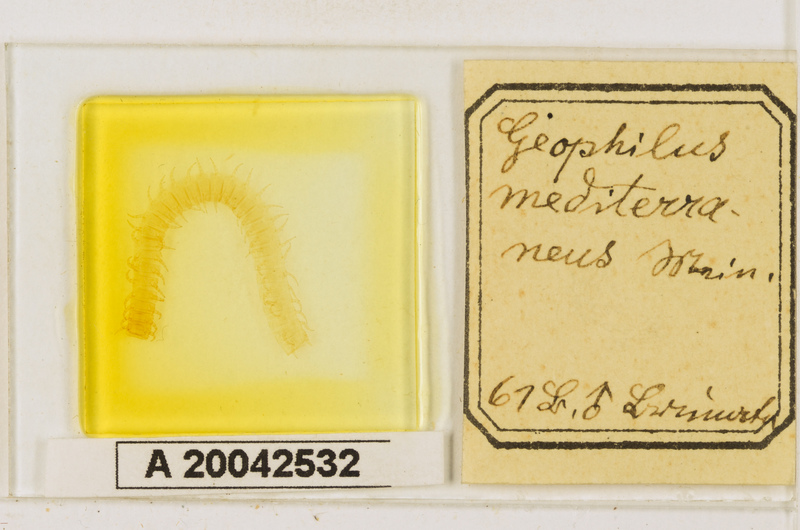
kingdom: Animalia
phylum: Arthropoda
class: Chilopoda
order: Geophilomorpha
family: Geophilidae
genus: Pleurogeophilus
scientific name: Pleurogeophilus mediterraneus
